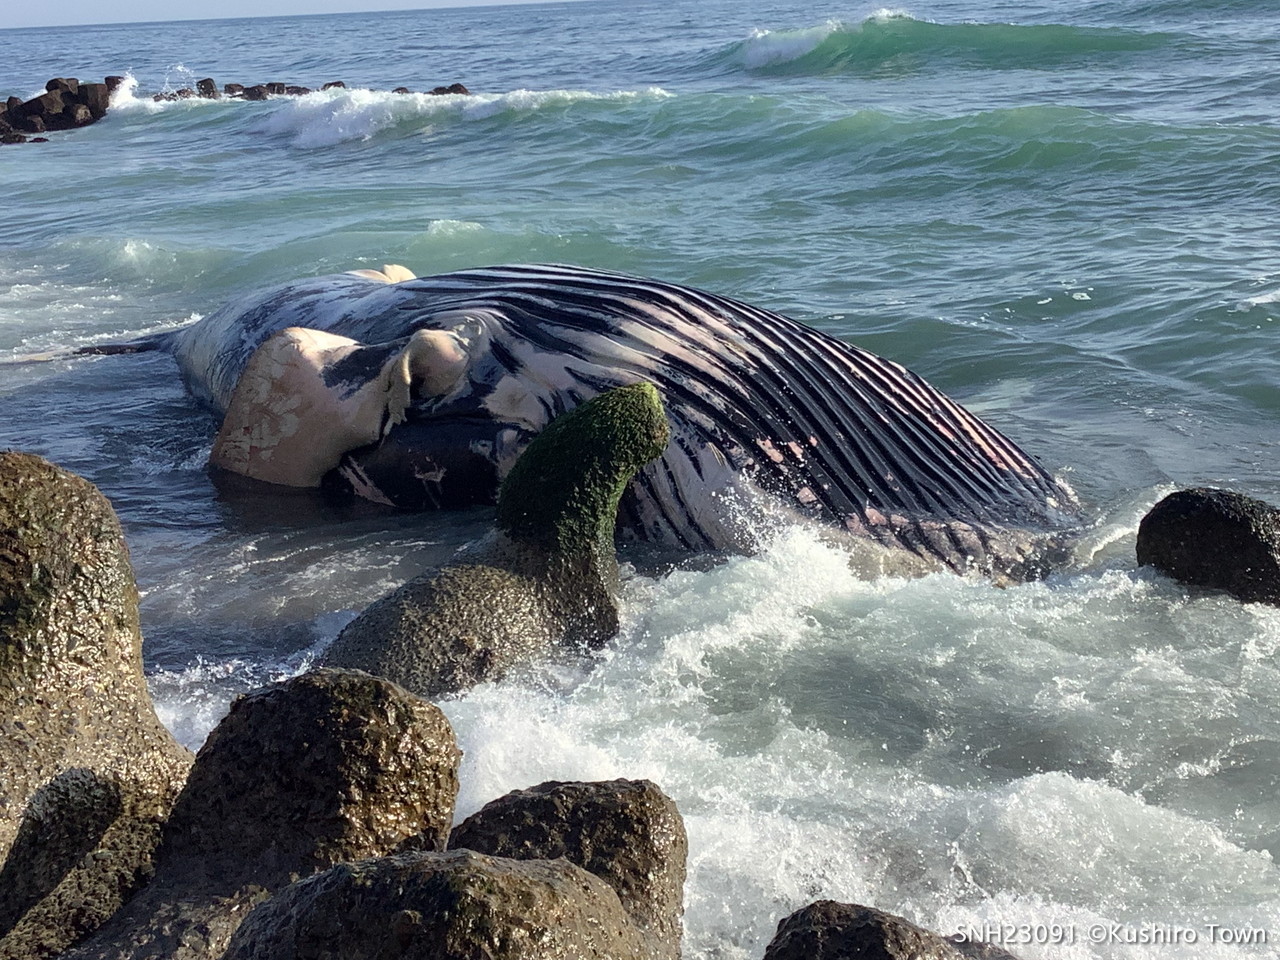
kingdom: Animalia
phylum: Chordata
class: Mammalia
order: Cetacea
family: Balaenopteridae
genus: Megaptera
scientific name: Megaptera novaeangliae
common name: Humpback whale
